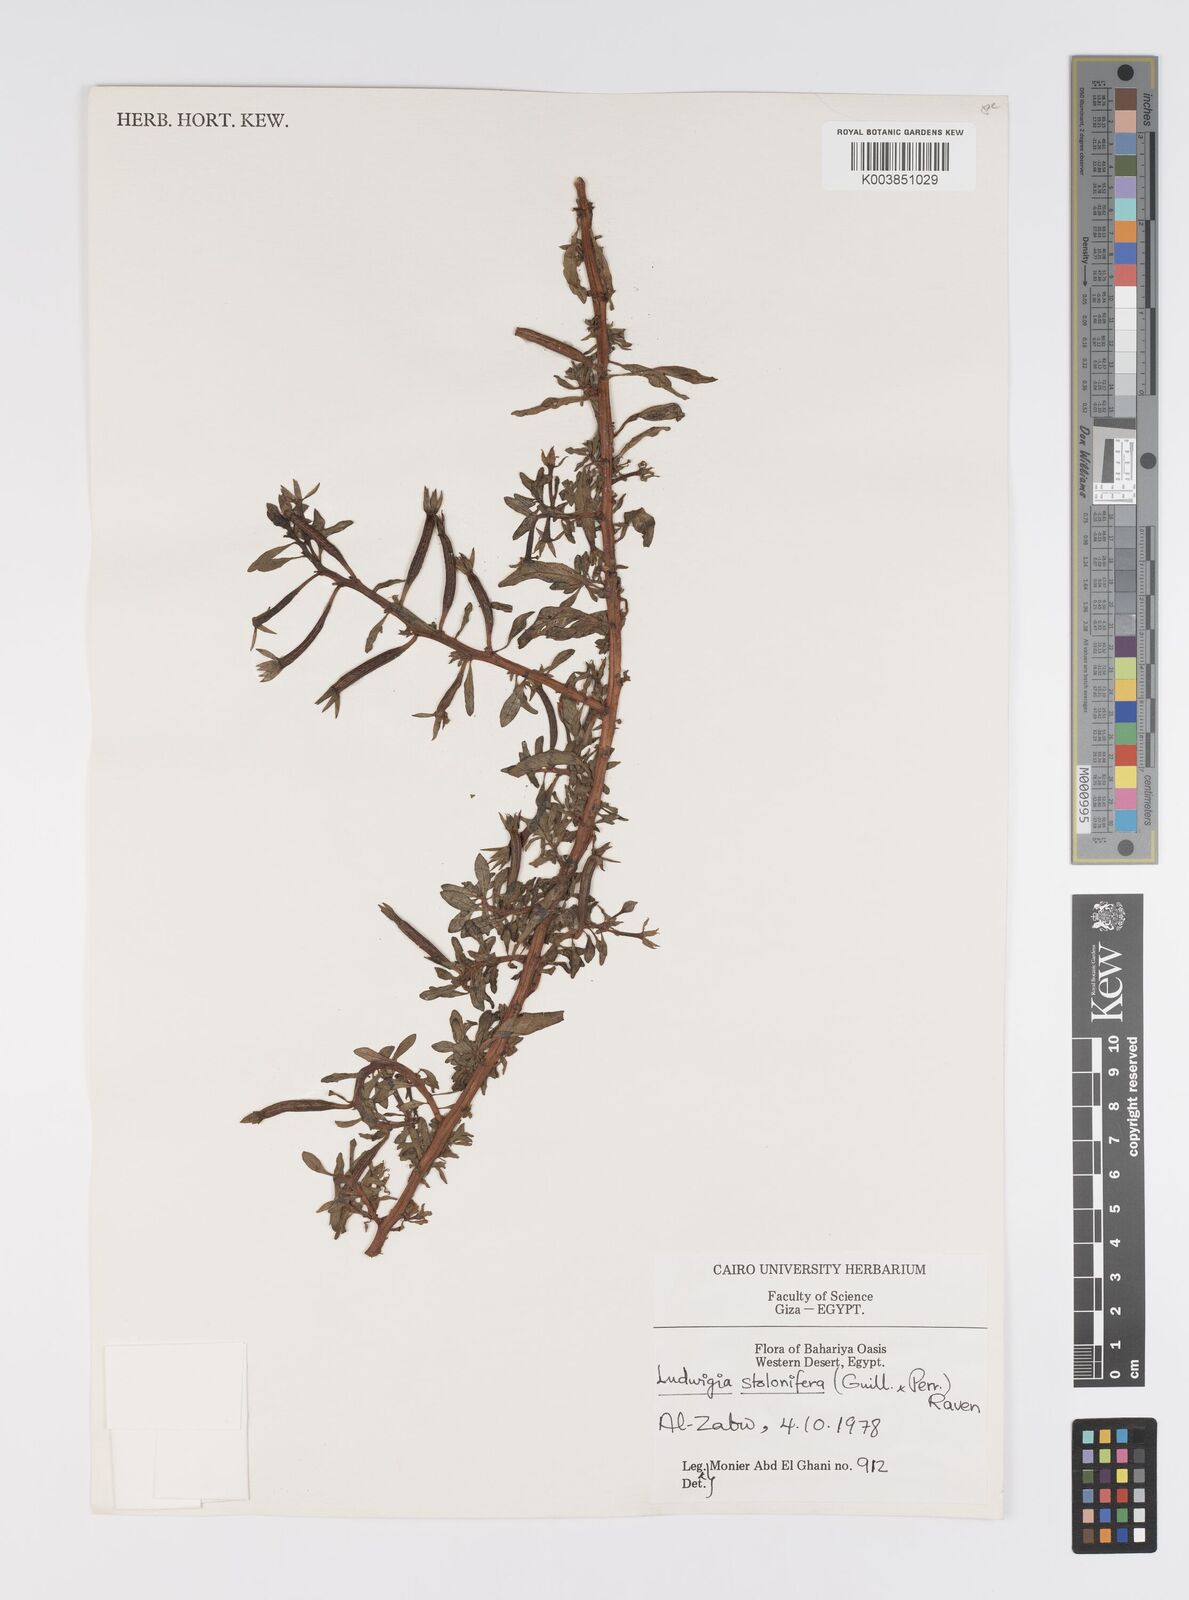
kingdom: Plantae
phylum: Tracheophyta
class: Magnoliopsida
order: Myrtales
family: Onagraceae
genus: Ludwigia
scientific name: Ludwigia adscendens
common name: Creeping water primrose
